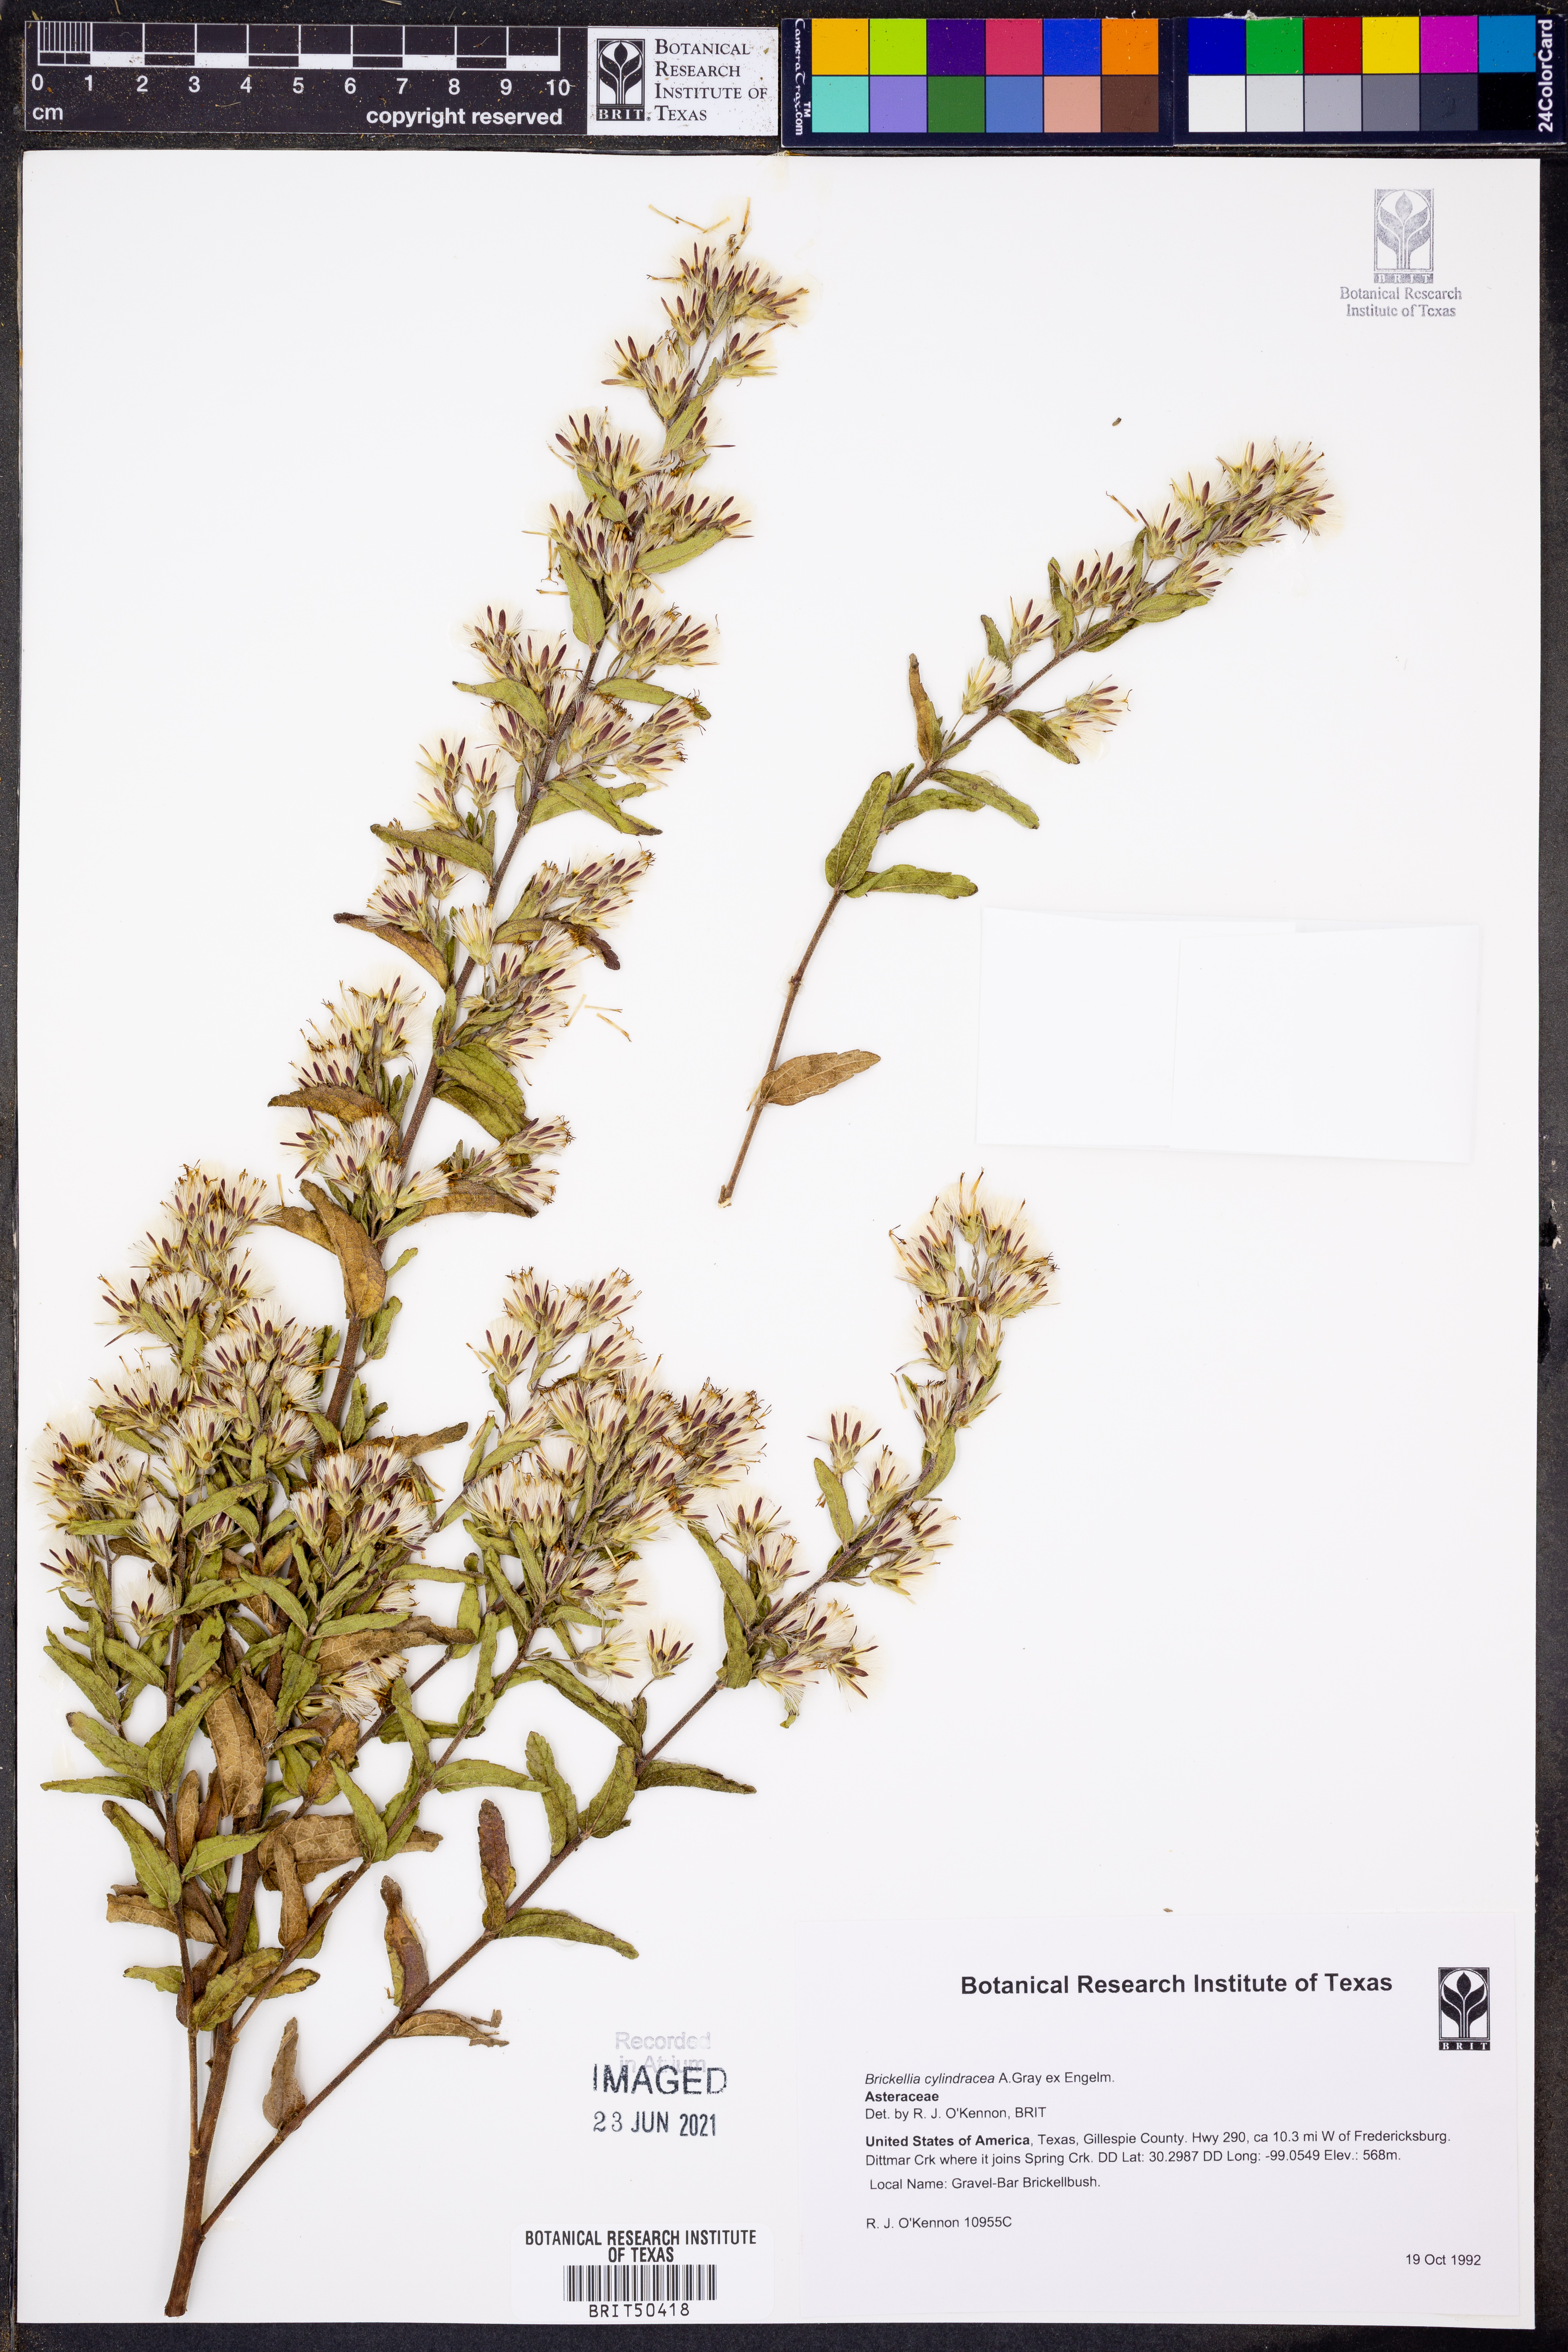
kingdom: Plantae
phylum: Tracheophyta
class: Magnoliopsida
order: Asterales
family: Asteraceae
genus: Brickellia
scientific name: Brickellia cylindracea
